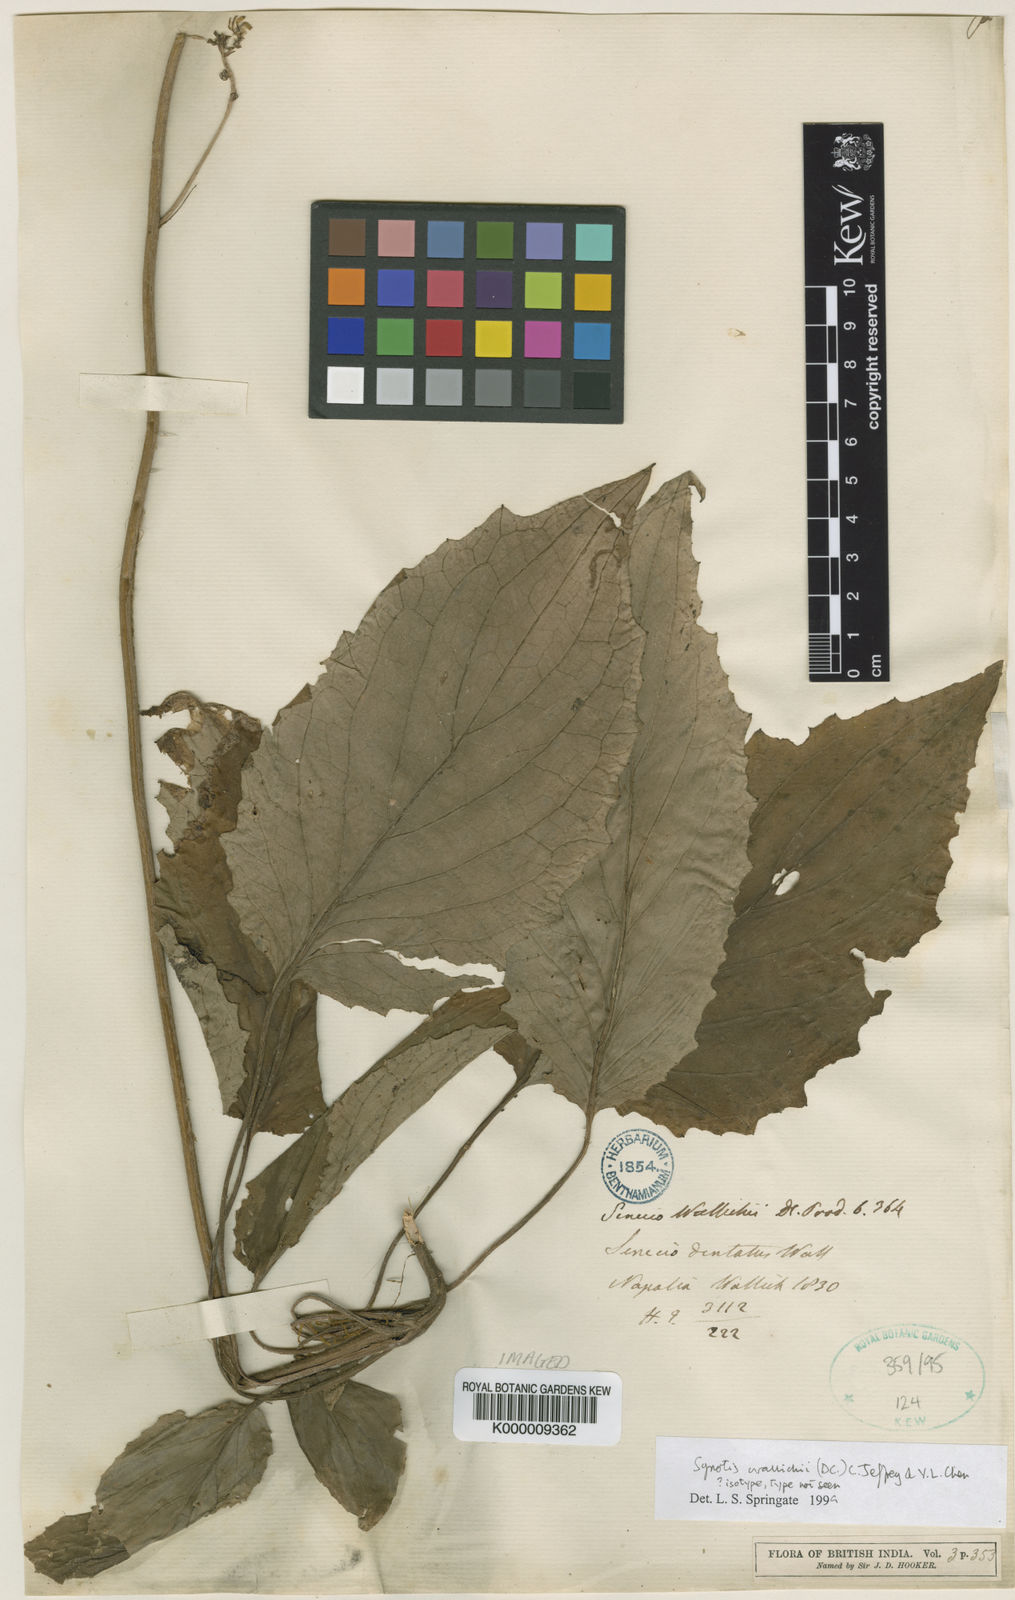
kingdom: Plantae
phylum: Tracheophyta
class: Magnoliopsida
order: Asterales
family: Asteraceae
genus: Synotis
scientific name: Synotis wallichii
